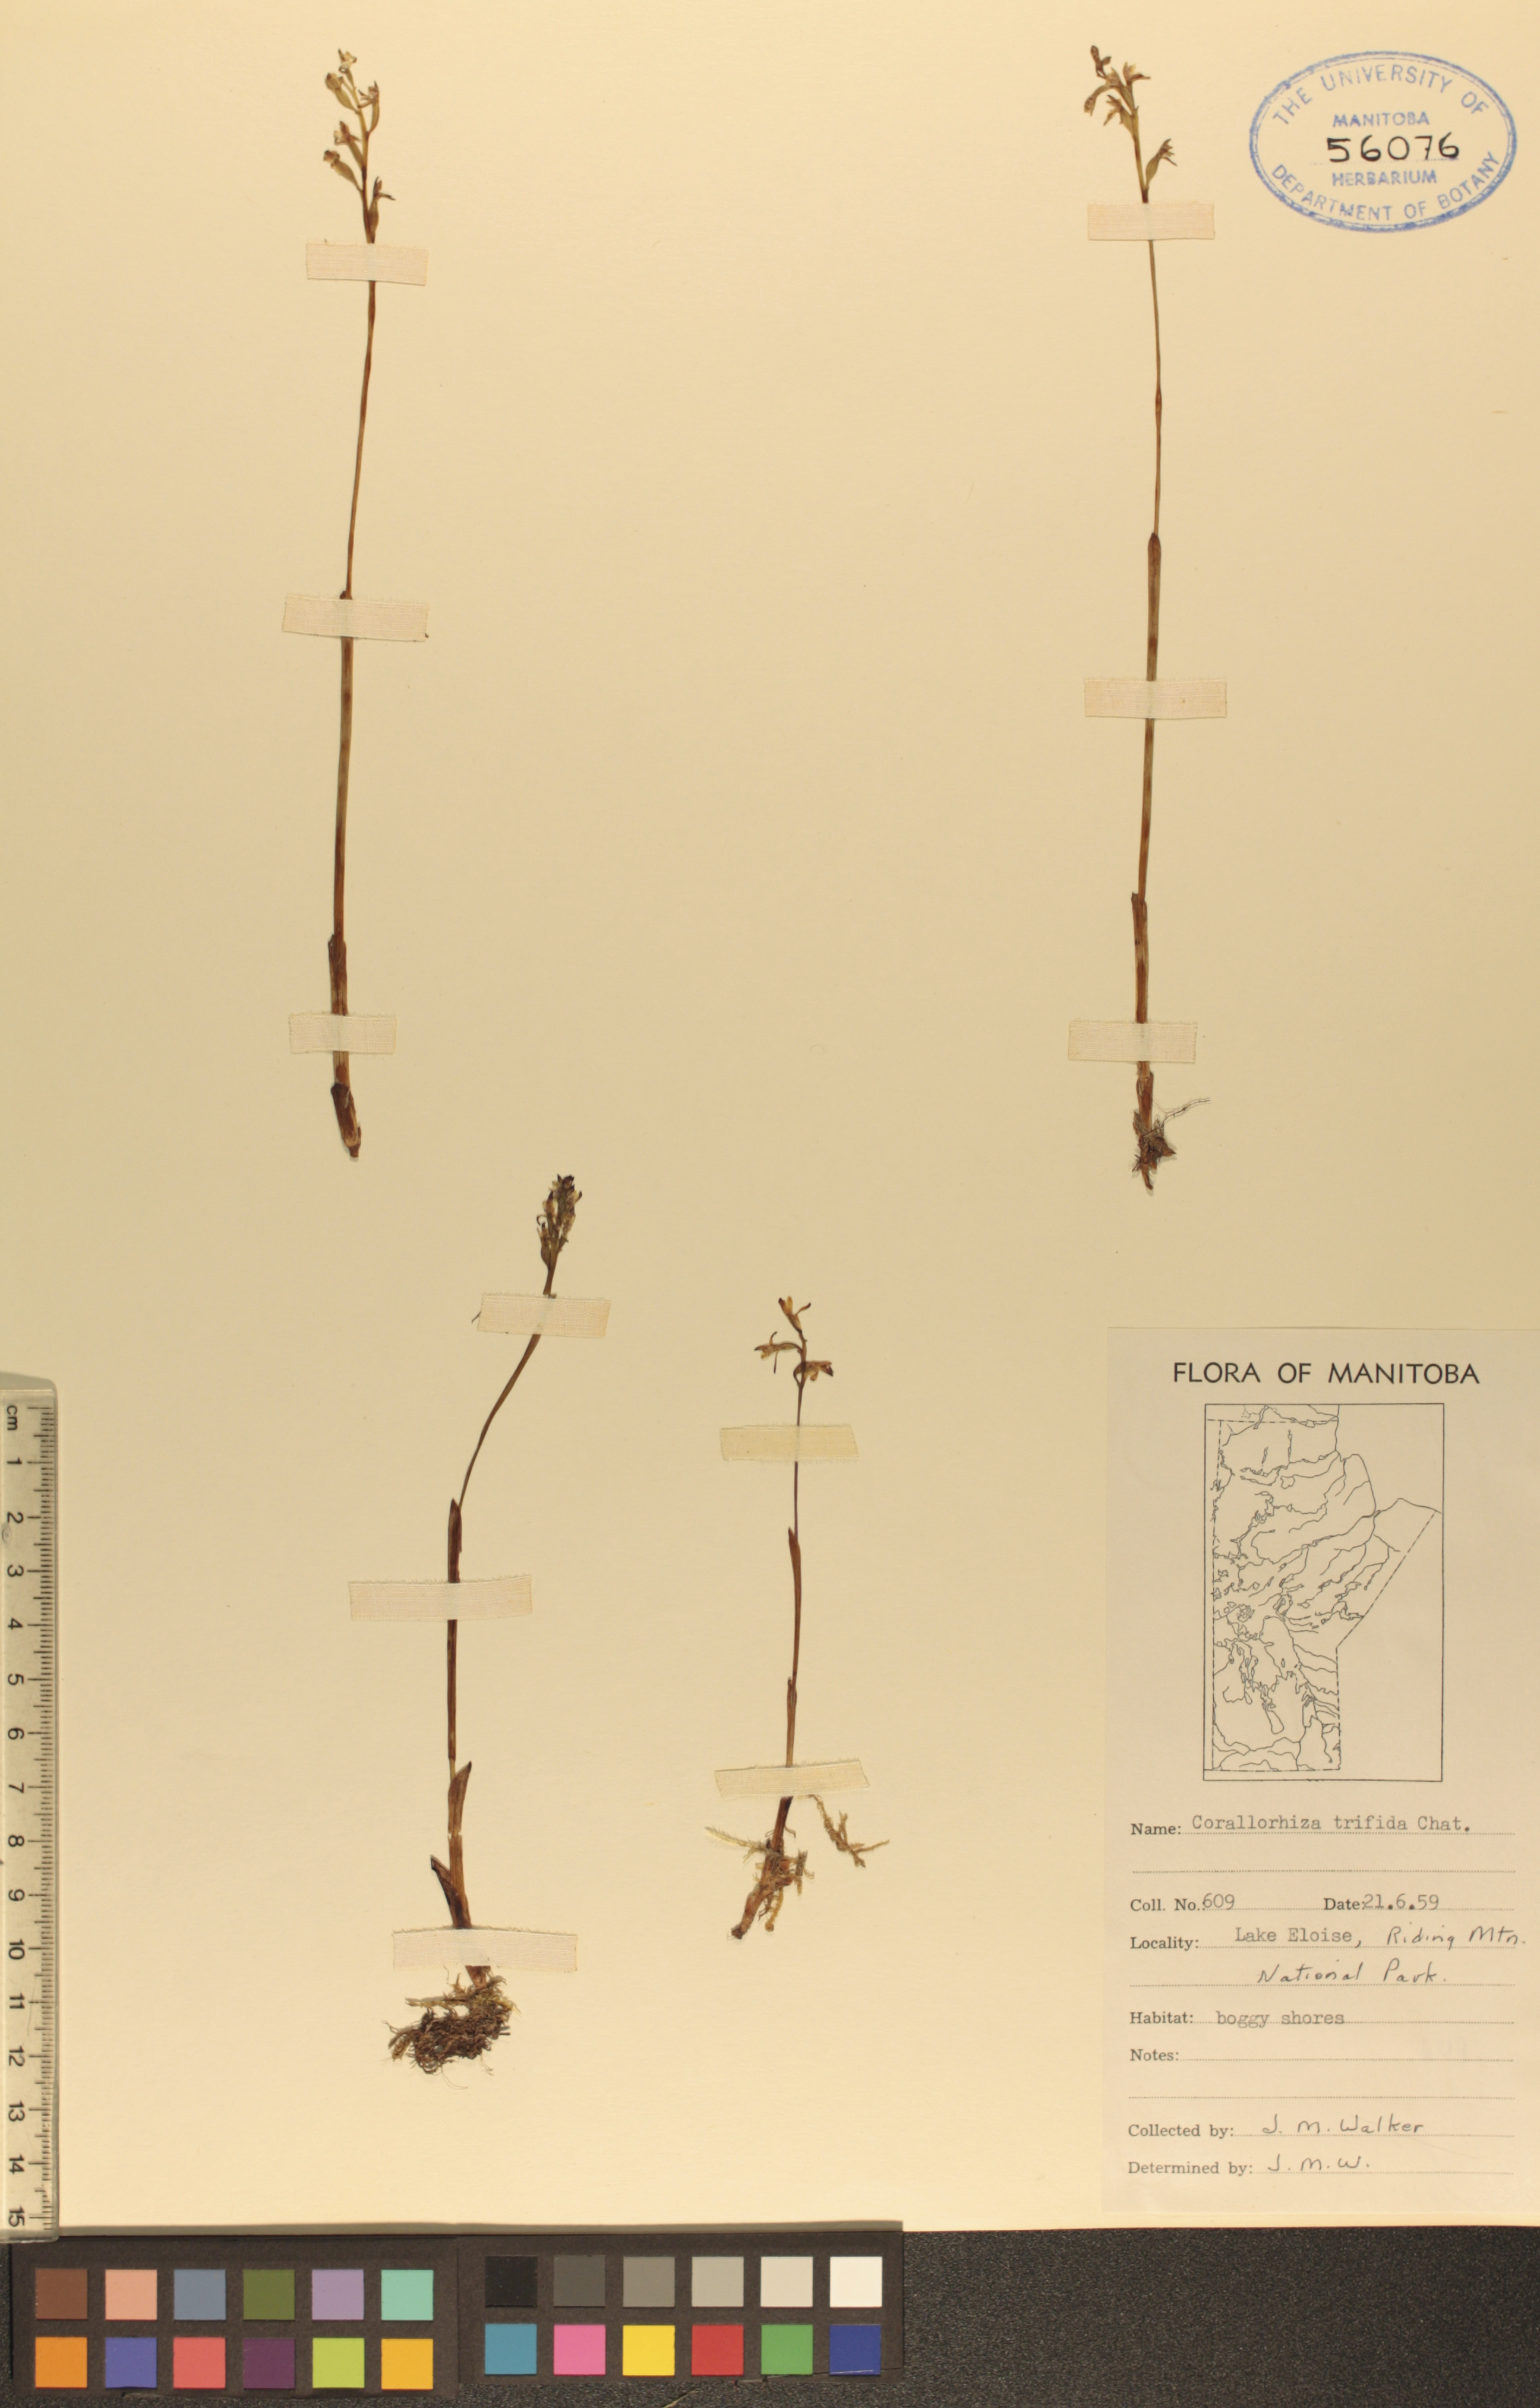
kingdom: Plantae
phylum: Tracheophyta
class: Liliopsida
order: Asparagales
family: Orchidaceae
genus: Corallorhiza
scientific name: Corallorhiza trifida
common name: Yellow coralroot
